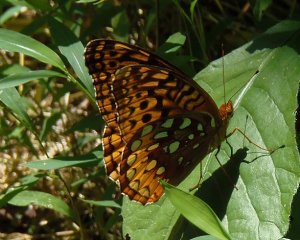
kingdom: Animalia
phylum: Arthropoda
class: Insecta
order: Lepidoptera
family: Nymphalidae
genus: Speyeria
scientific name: Speyeria cybele
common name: Great Spangled Fritillary
